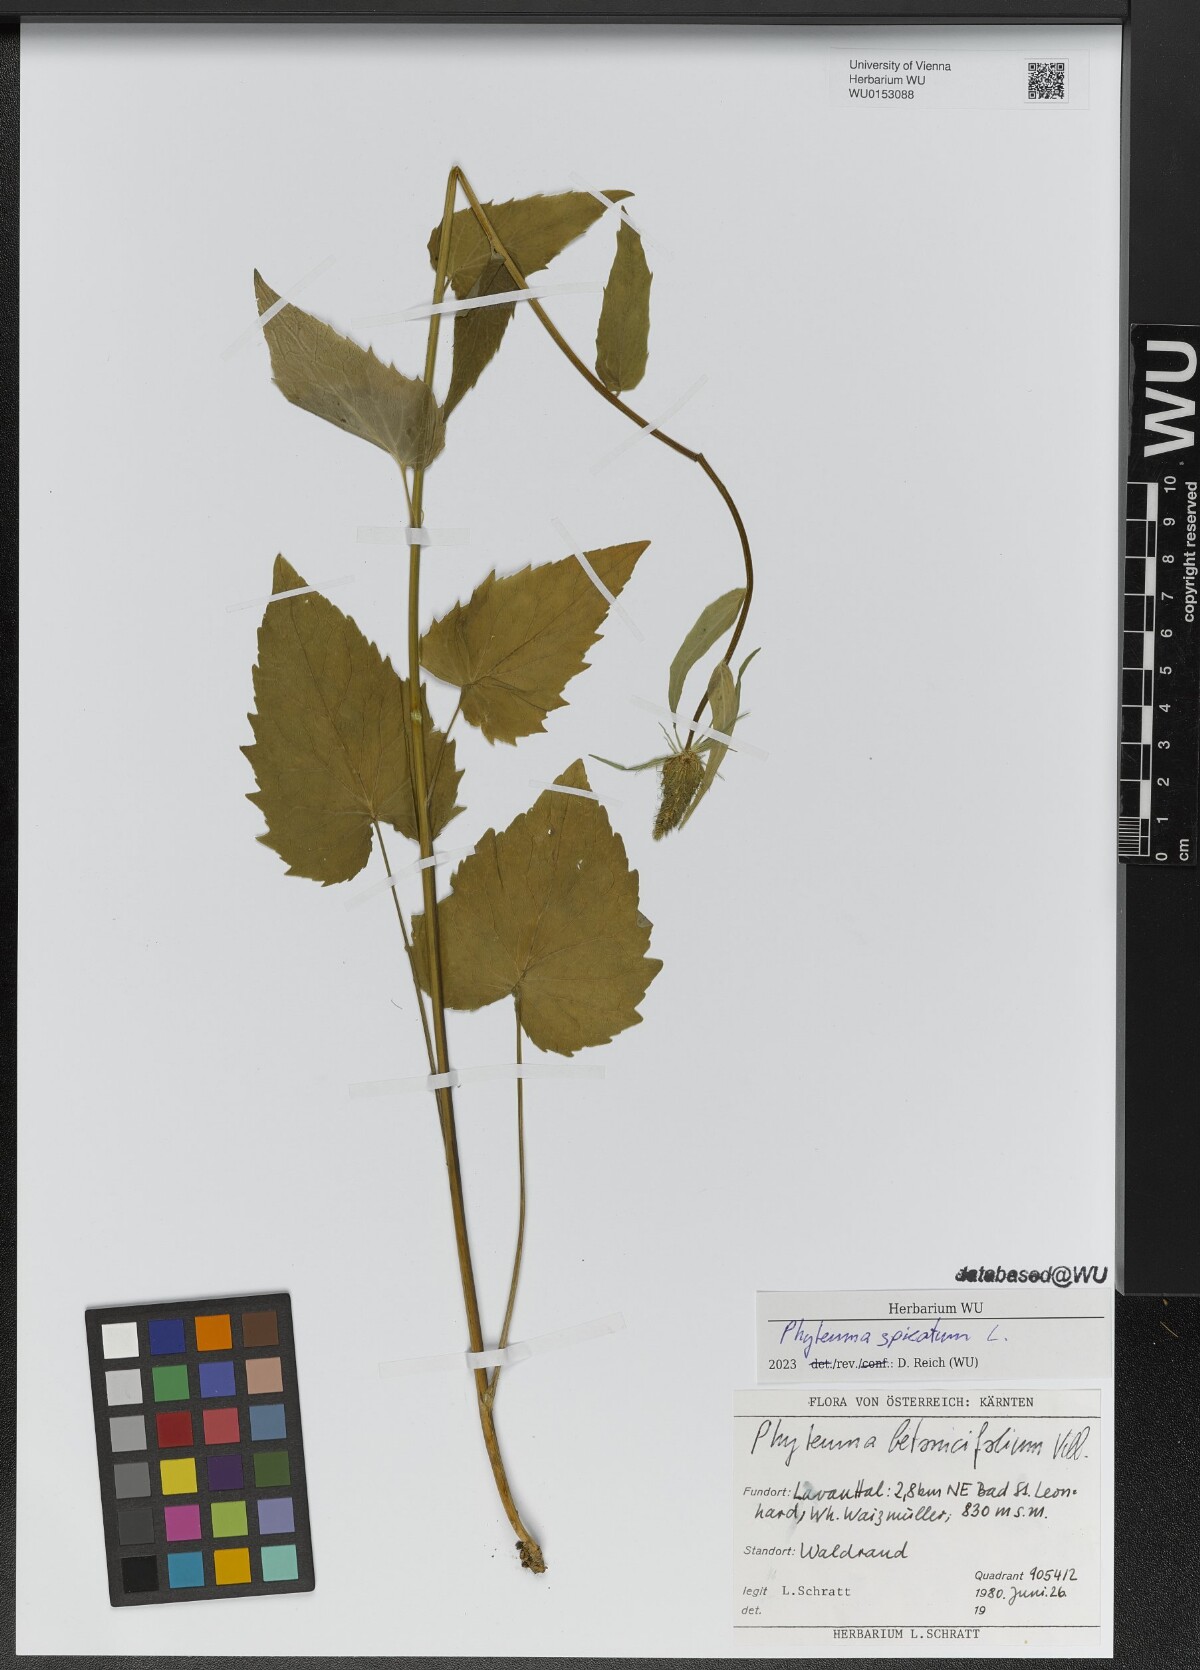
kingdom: Plantae
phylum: Tracheophyta
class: Magnoliopsida
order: Asterales
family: Campanulaceae
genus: Phyteuma
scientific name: Phyteuma spicatum
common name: Spiked rampion
